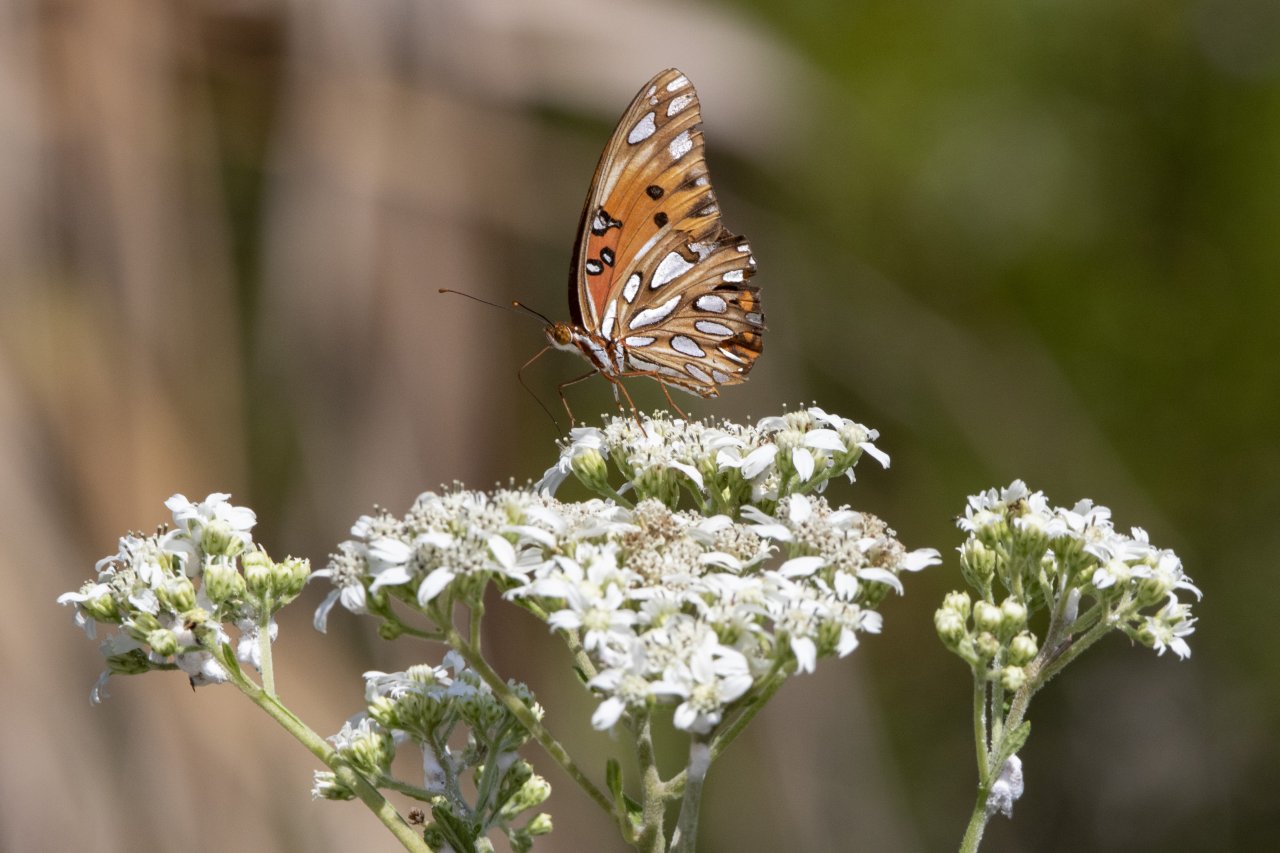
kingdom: Animalia
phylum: Arthropoda
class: Insecta
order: Lepidoptera
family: Nymphalidae
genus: Dione
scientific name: Dione vanillae
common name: Gulf Fritillary
